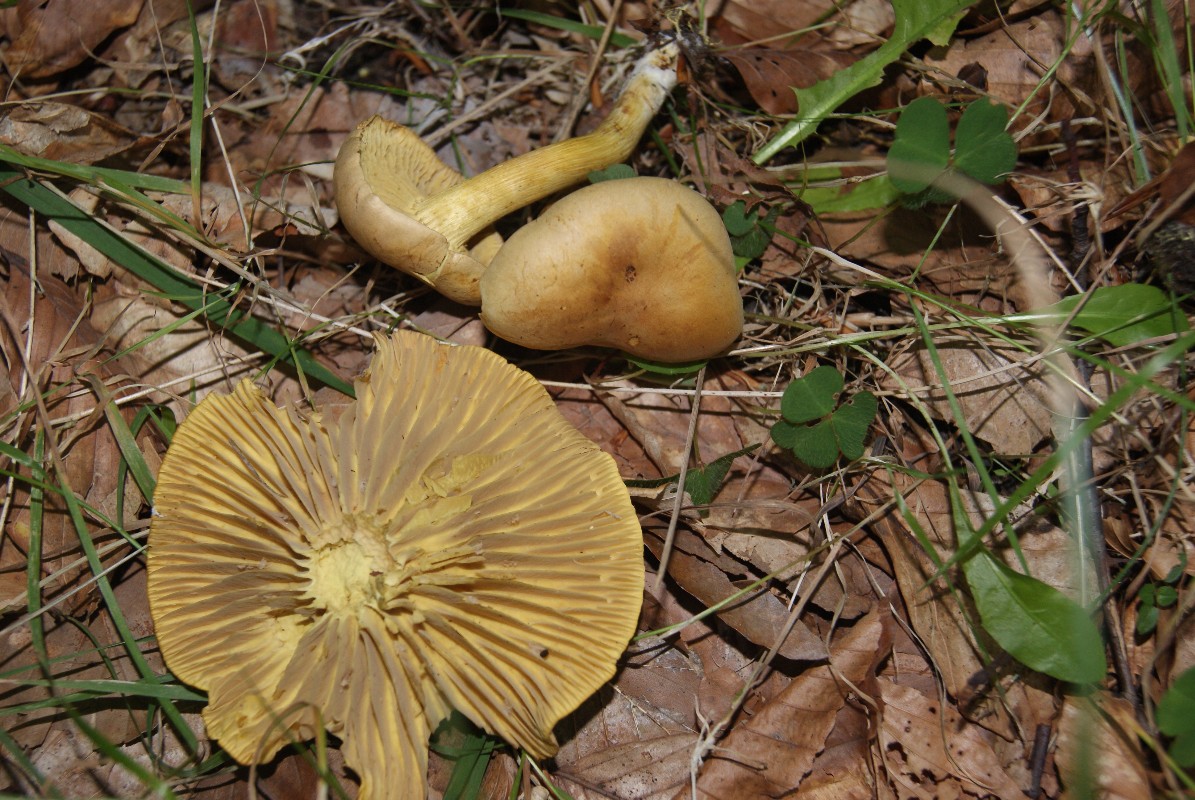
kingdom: Fungi
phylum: Basidiomycota
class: Agaricomycetes
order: Agaricales
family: Tricholomataceae
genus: Tricholoma
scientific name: Tricholoma sulphureum
